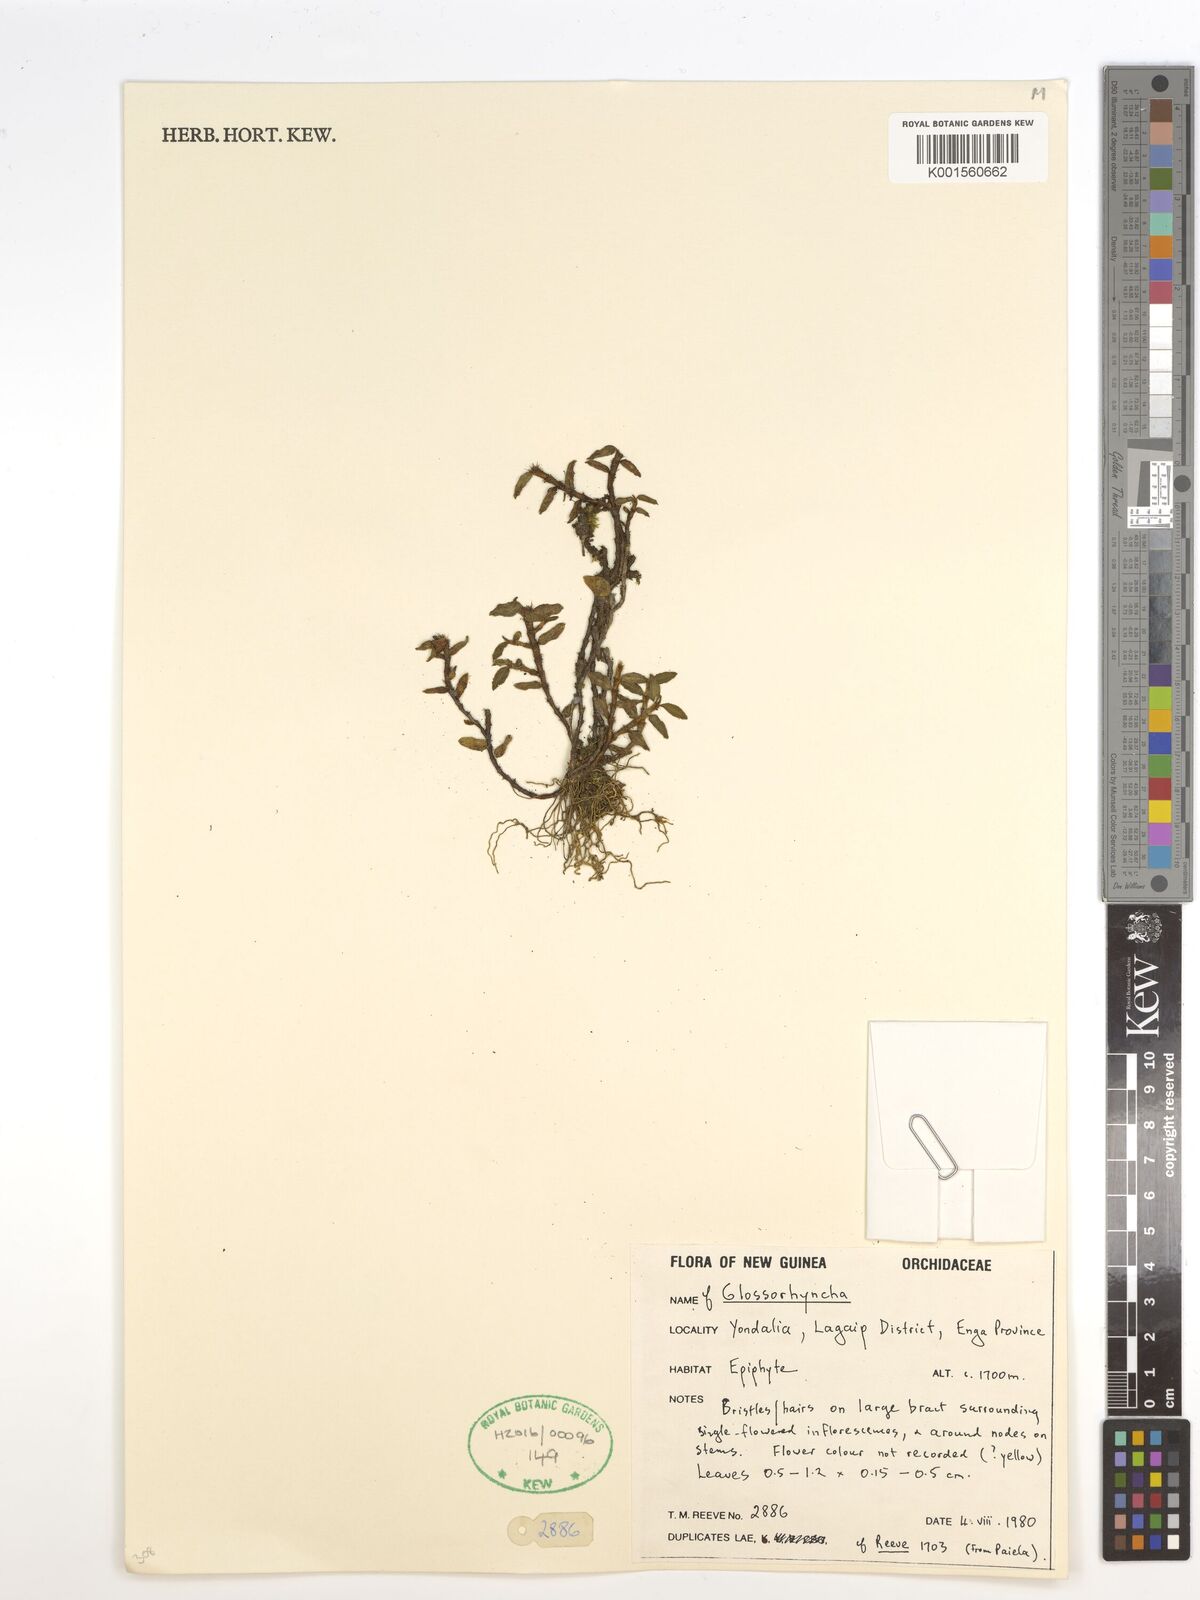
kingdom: Plantae
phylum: Tracheophyta
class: Liliopsida
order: Asparagales
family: Orchidaceae
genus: Glomera
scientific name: Glomera
